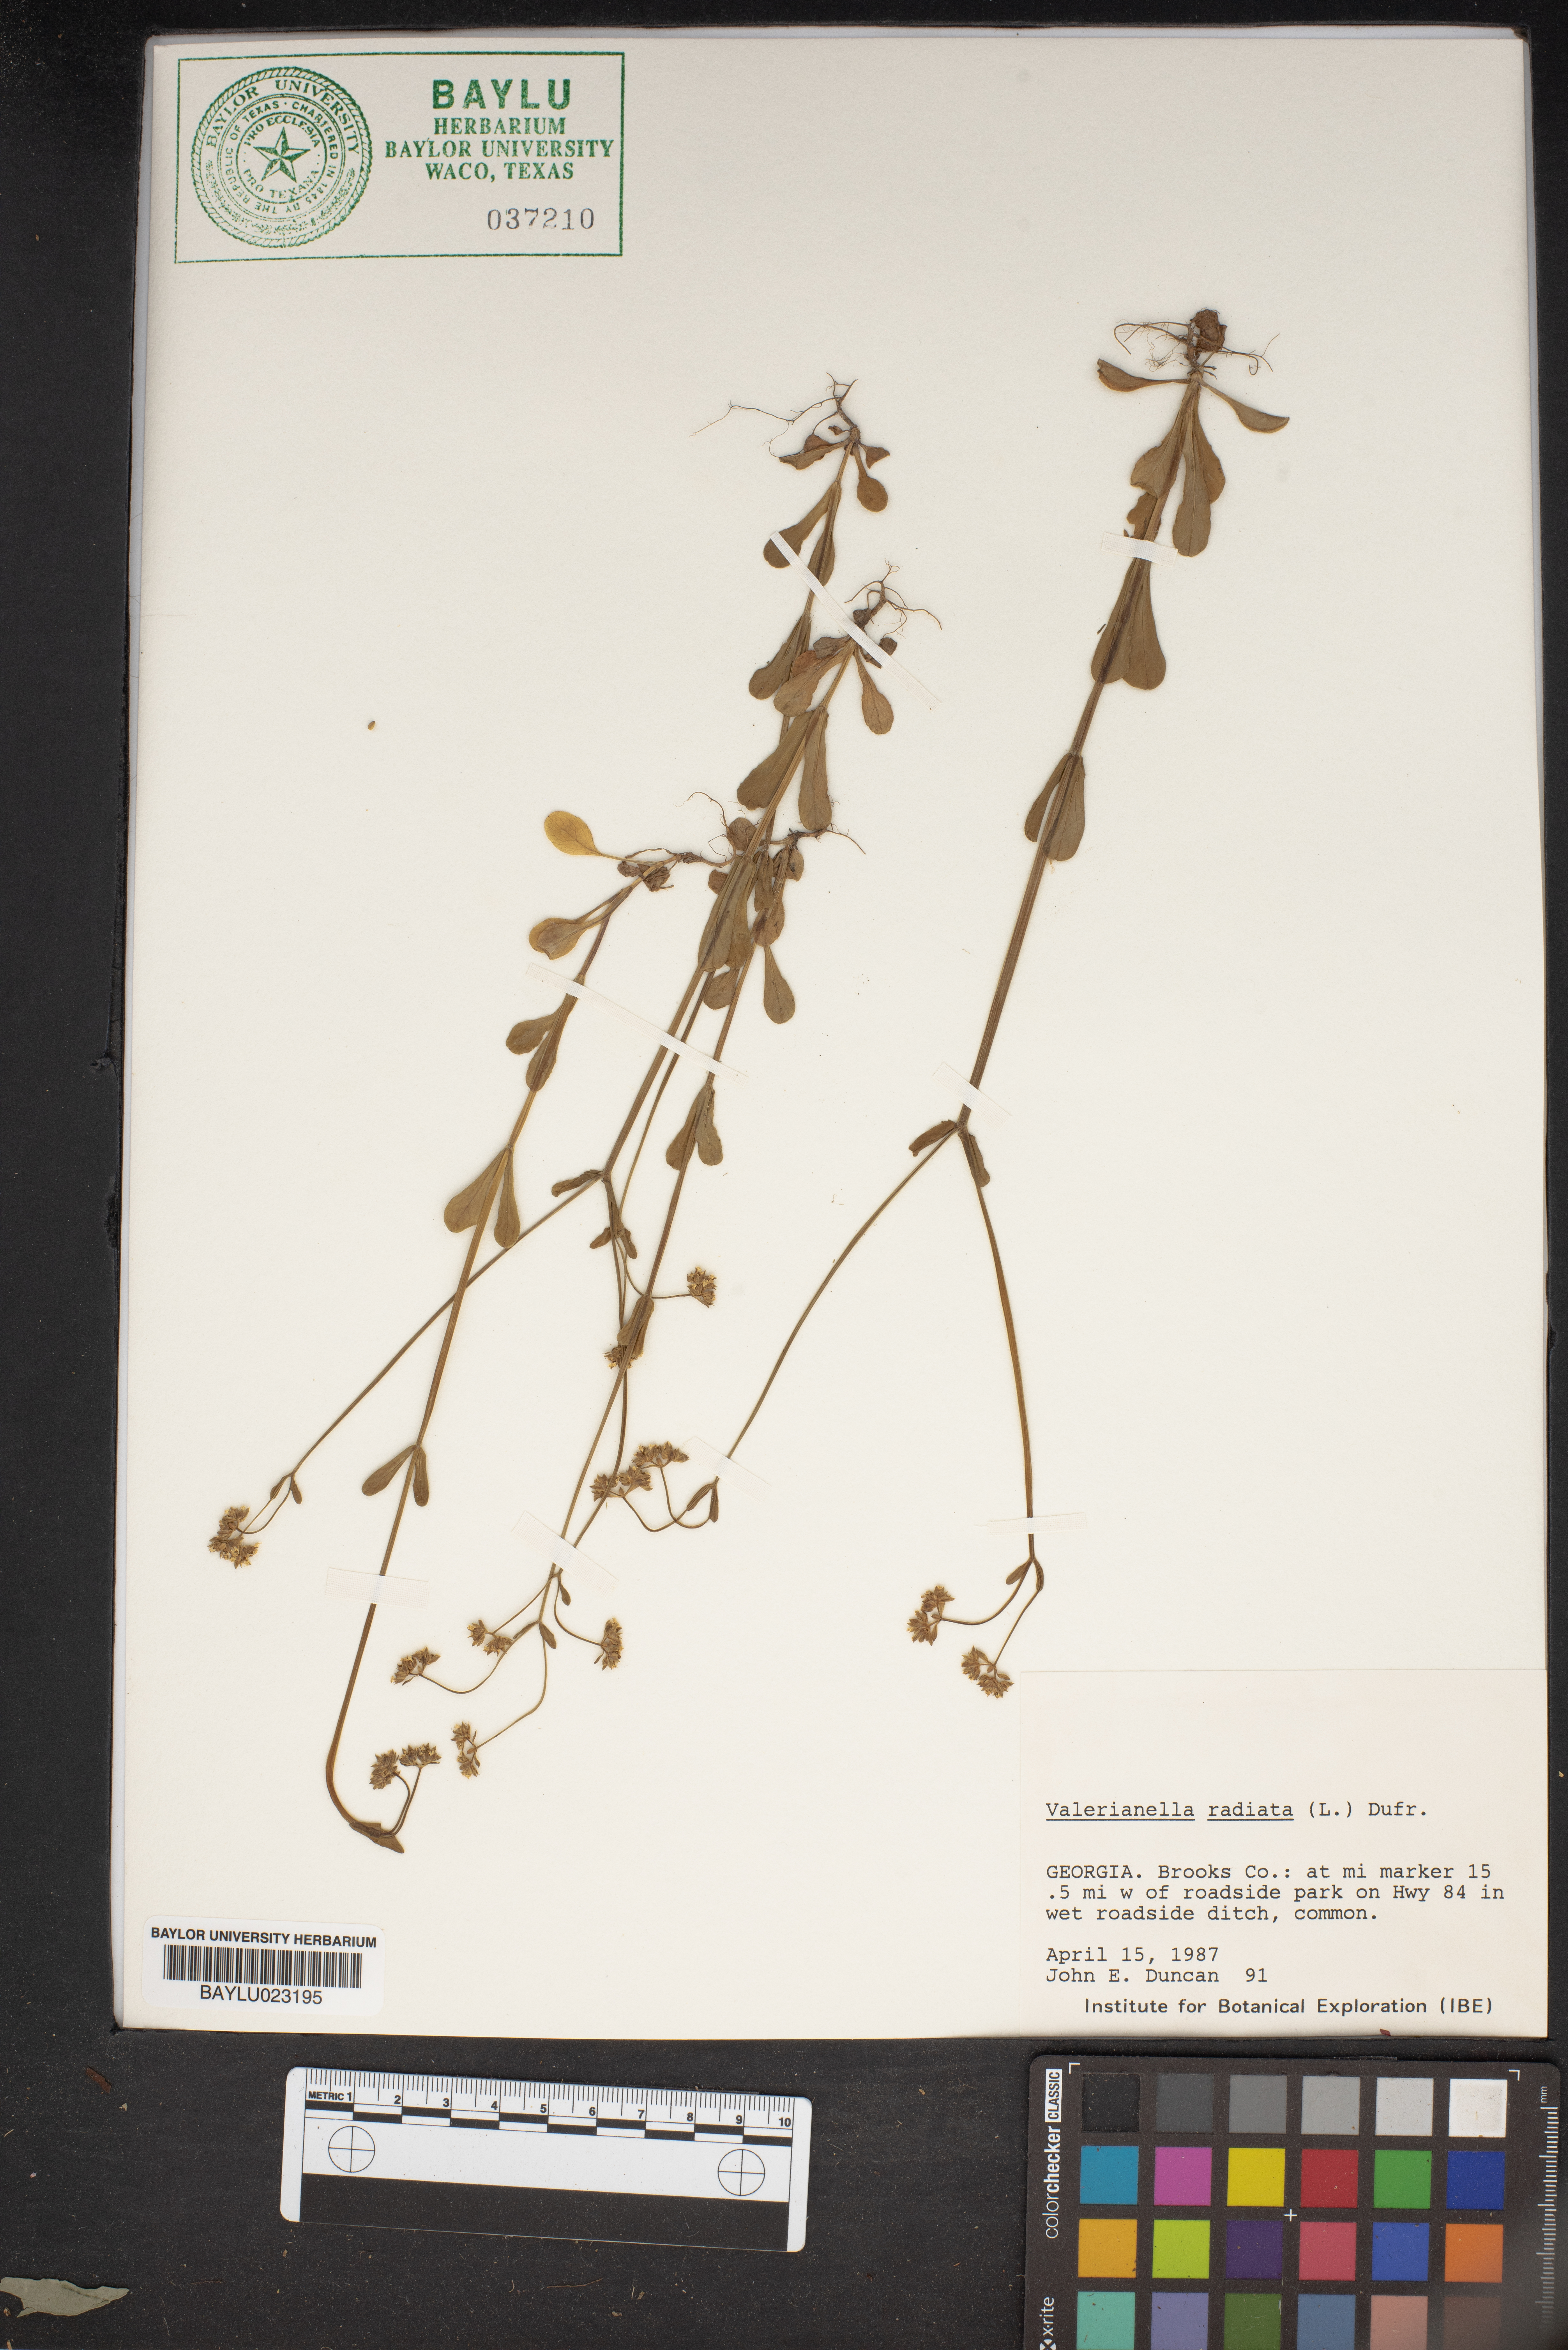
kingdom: Plantae
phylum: Tracheophyta
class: Magnoliopsida
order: Dipsacales
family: Caprifoliaceae
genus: Valerianella
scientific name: Valerianella radiata
